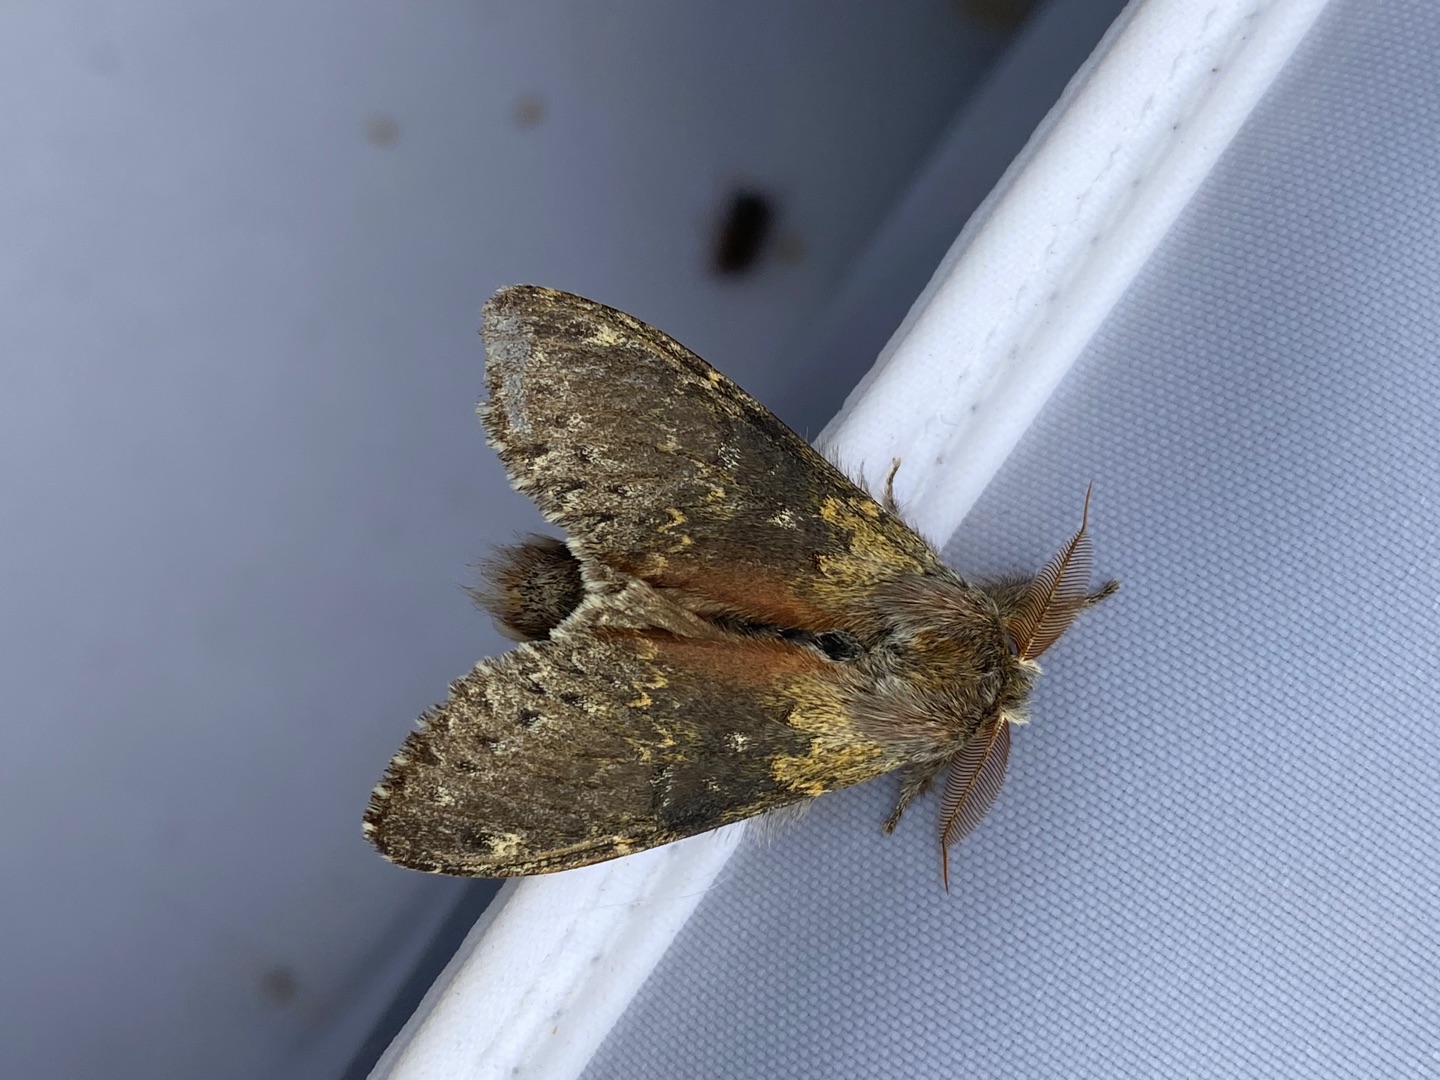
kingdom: Animalia
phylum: Arthropoda
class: Insecta
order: Lepidoptera
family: Notodontidae
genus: Stauropus
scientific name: Stauropus fagi
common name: Bøgespinder
